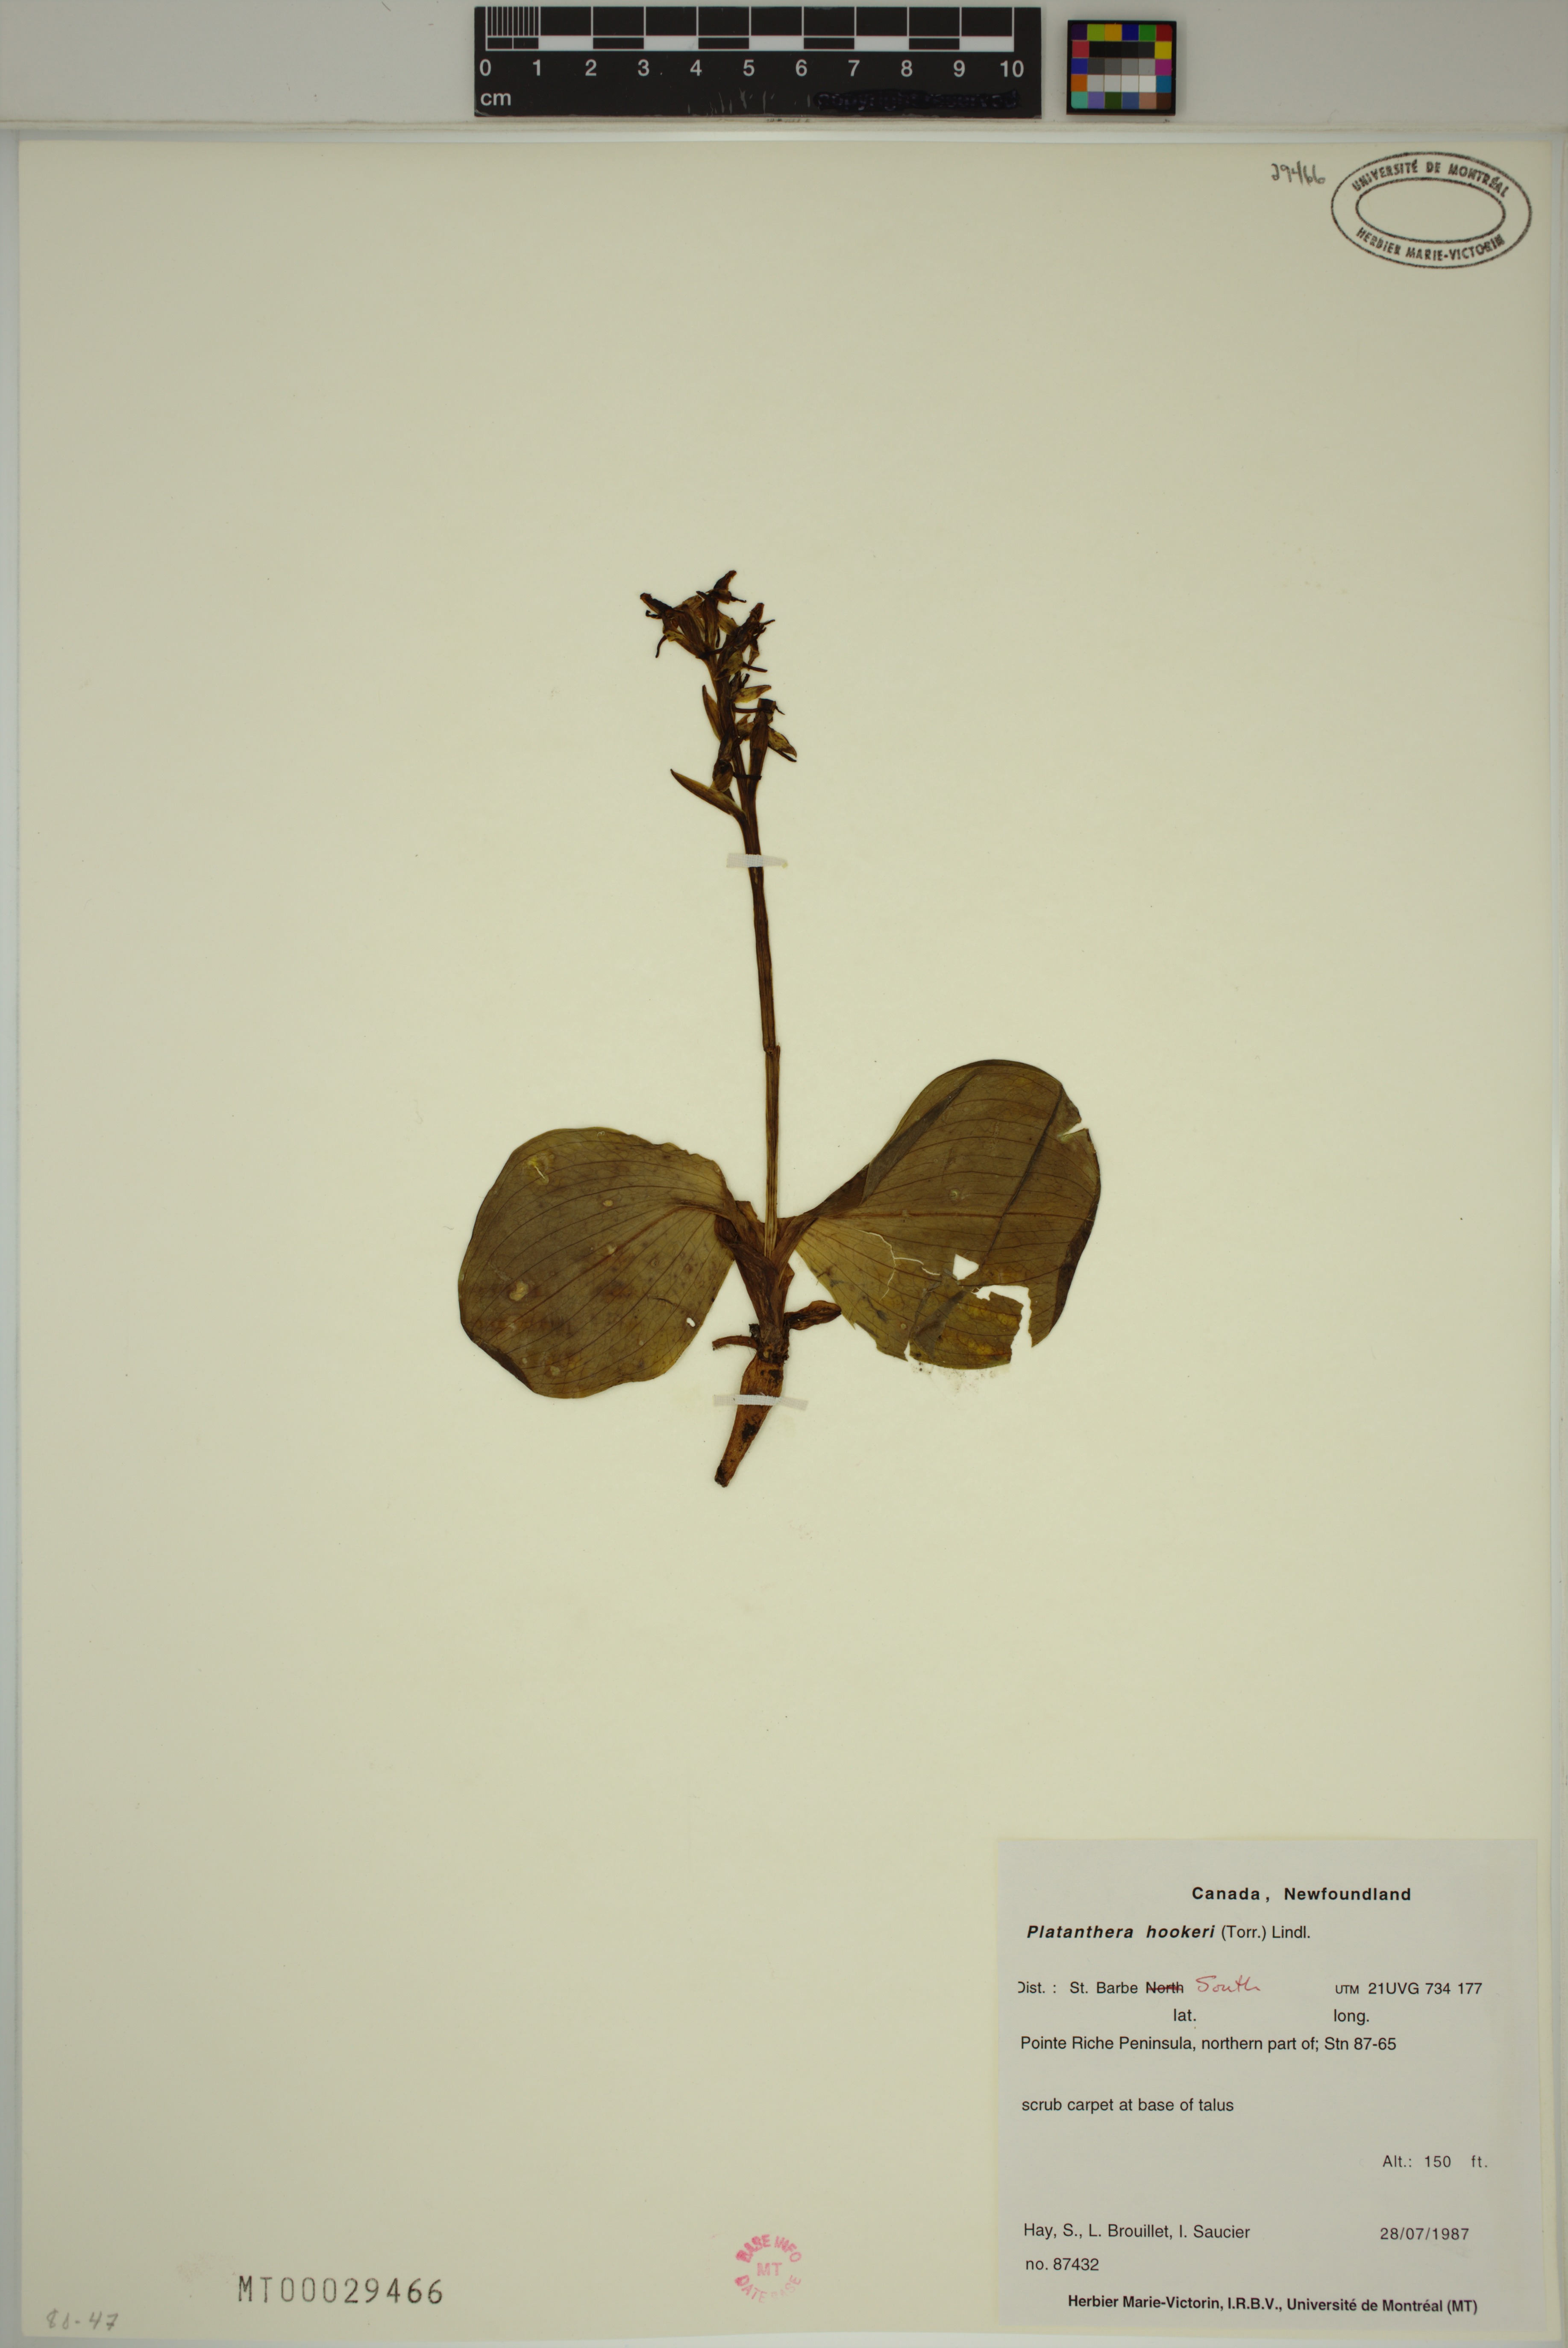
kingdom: Plantae
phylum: Tracheophyta
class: Liliopsida
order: Asparagales
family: Orchidaceae
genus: Platanthera
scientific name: Platanthera hookeri
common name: Hooker's orchid
